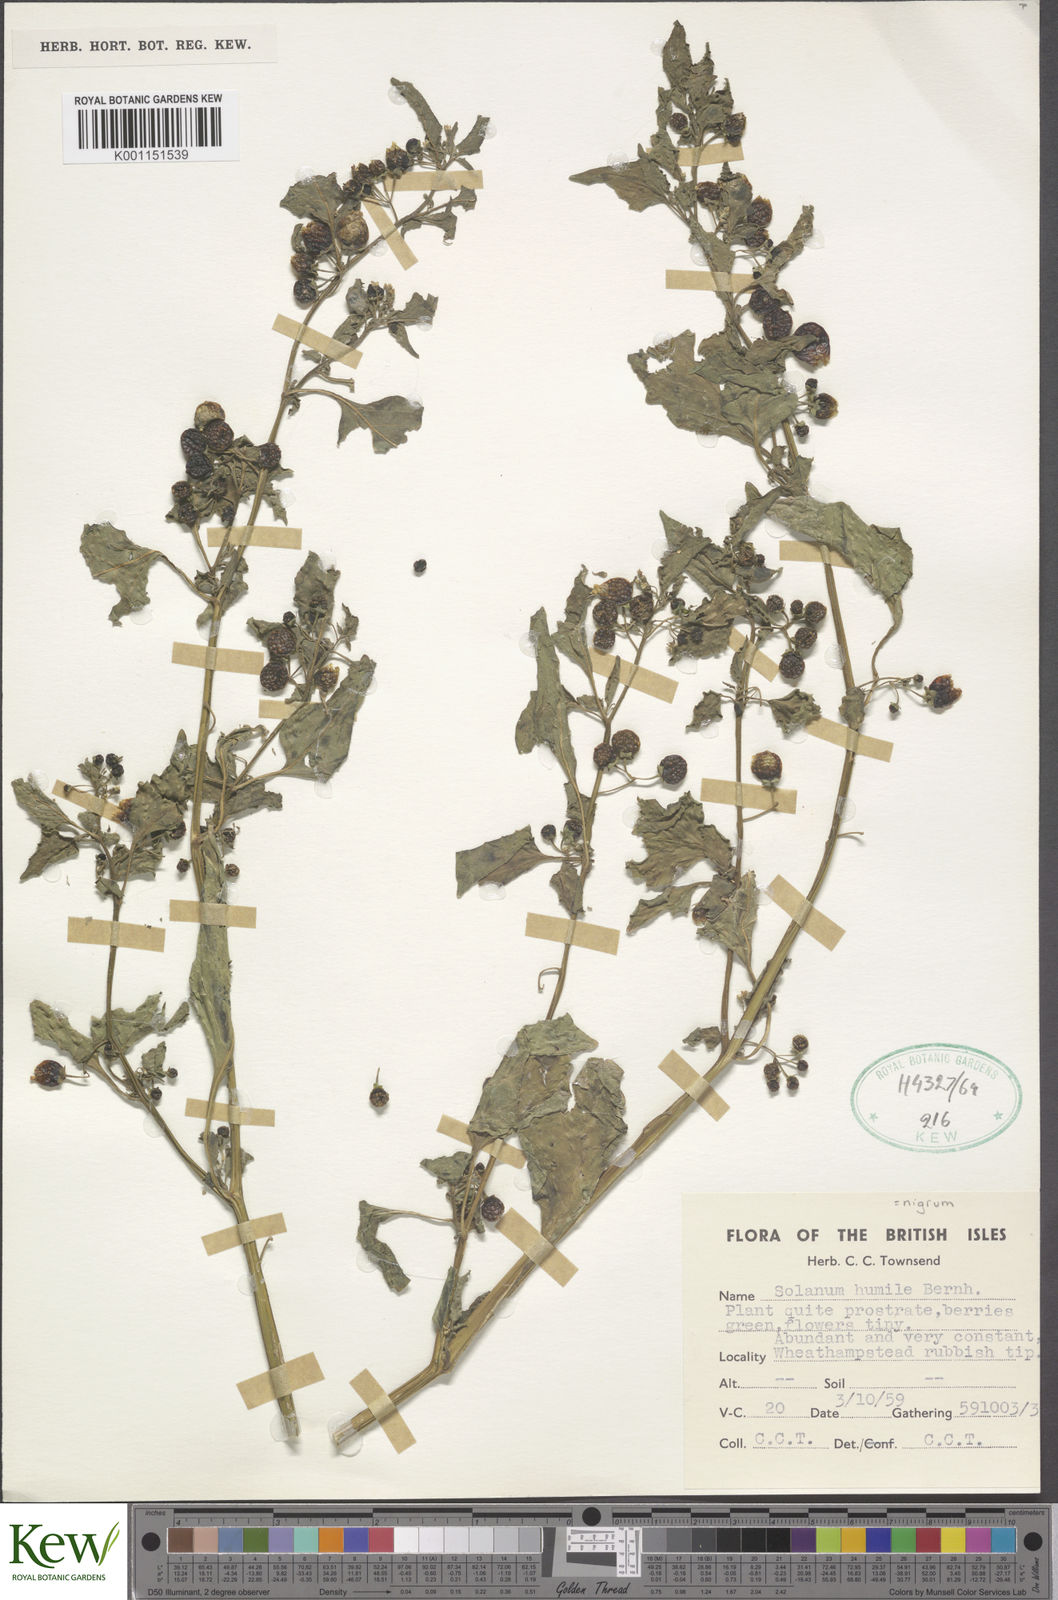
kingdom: Plantae
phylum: Tracheophyta
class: Magnoliopsida
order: Solanales
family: Solanaceae
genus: Solanum
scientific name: Solanum americanum
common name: American black nightshade
